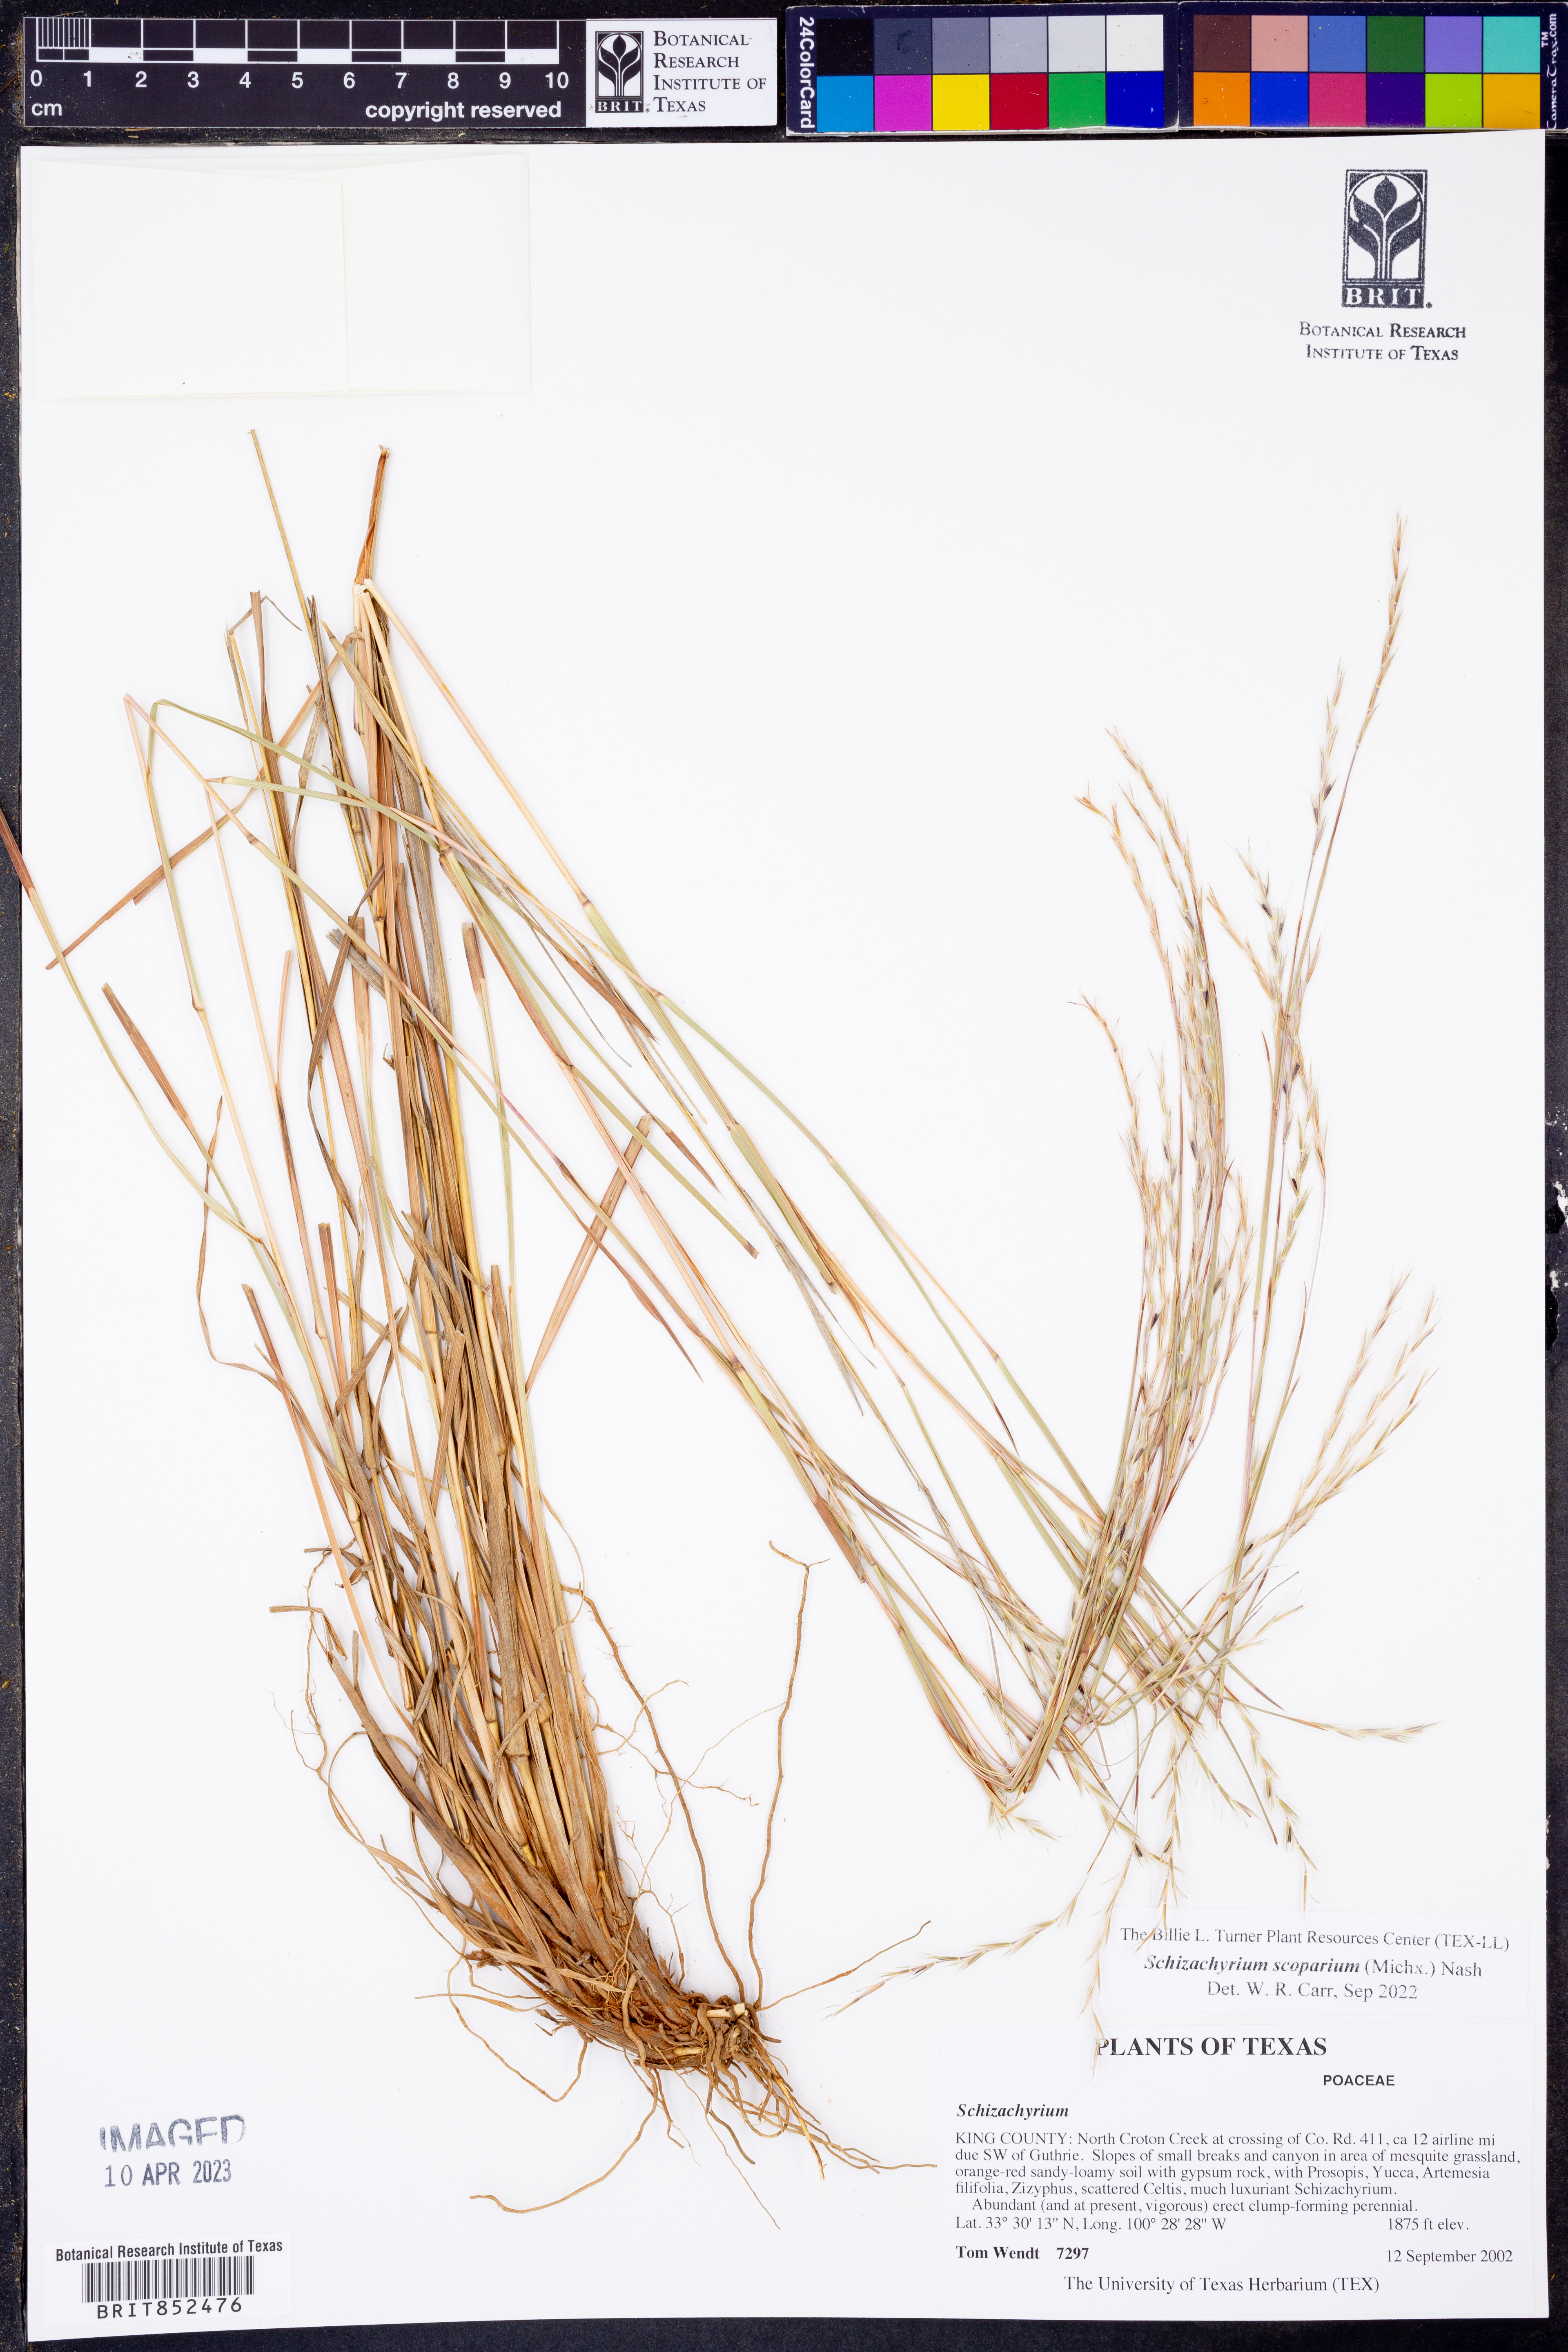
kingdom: Plantae
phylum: Tracheophyta
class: Liliopsida
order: Poales
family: Poaceae
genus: Schizachyrium
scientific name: Schizachyrium scoparium
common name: Little bluestem
